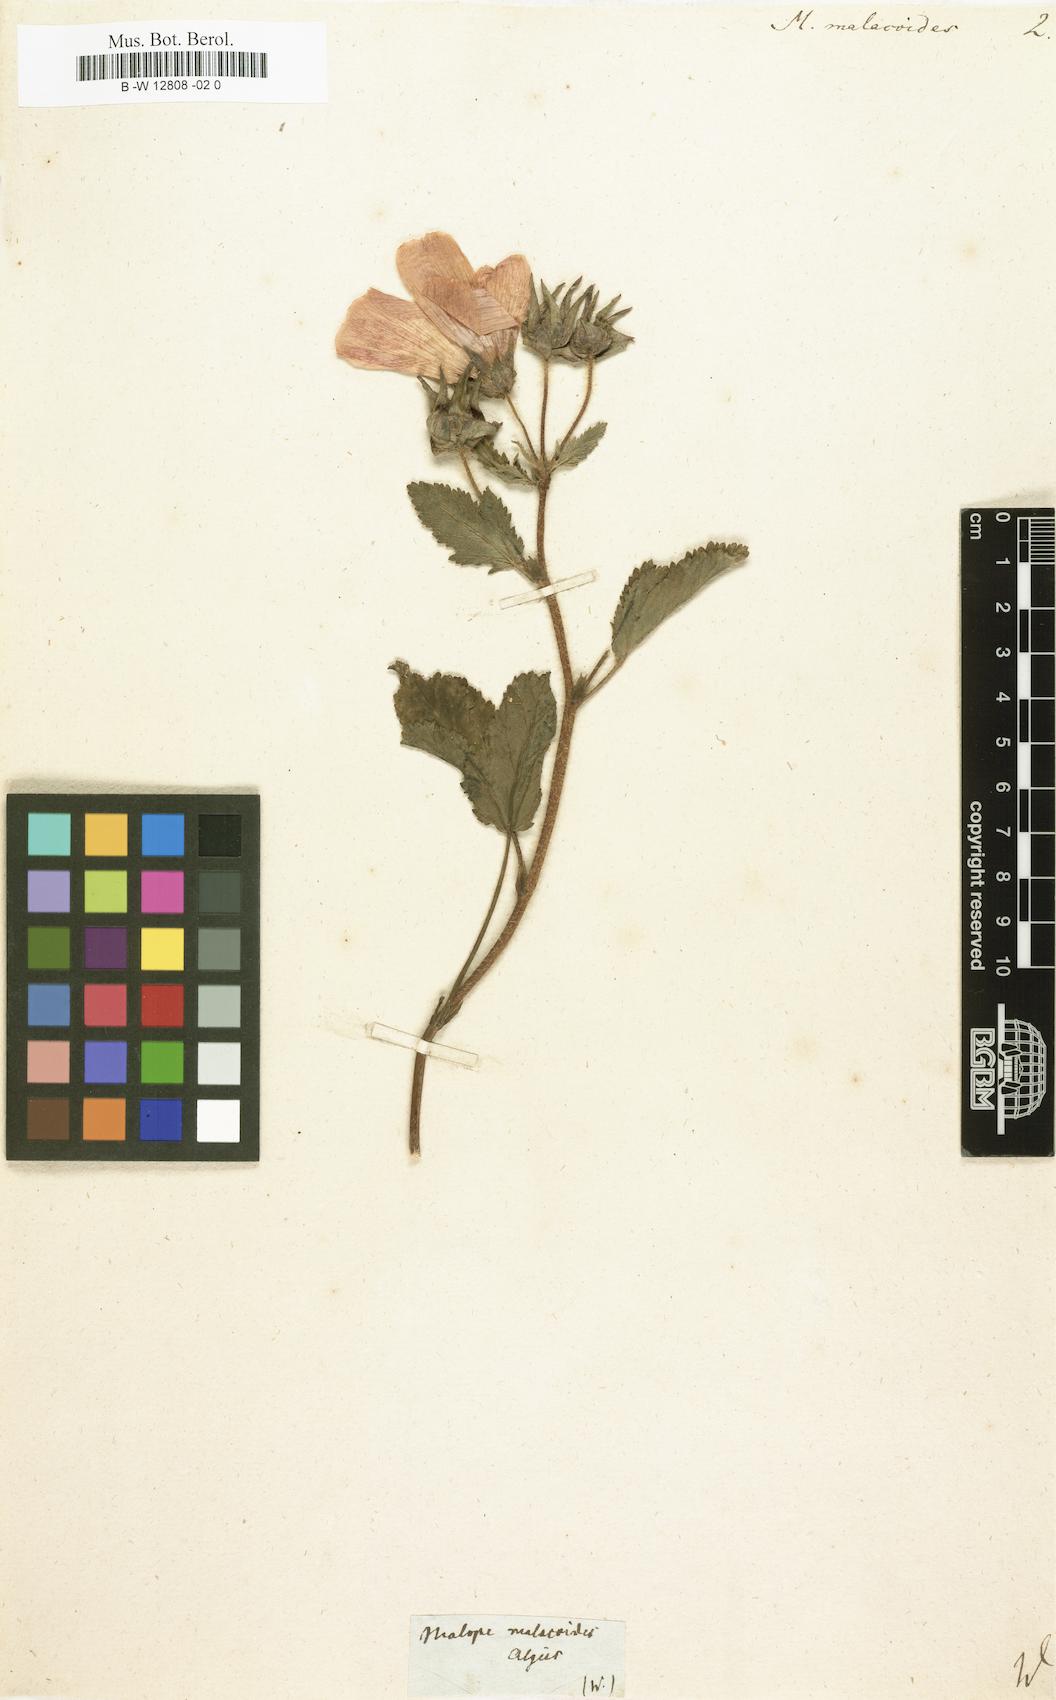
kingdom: Plantae
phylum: Tracheophyta
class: Magnoliopsida
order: Malvales
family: Malvaceae
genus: Malope
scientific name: Malope malacoides
